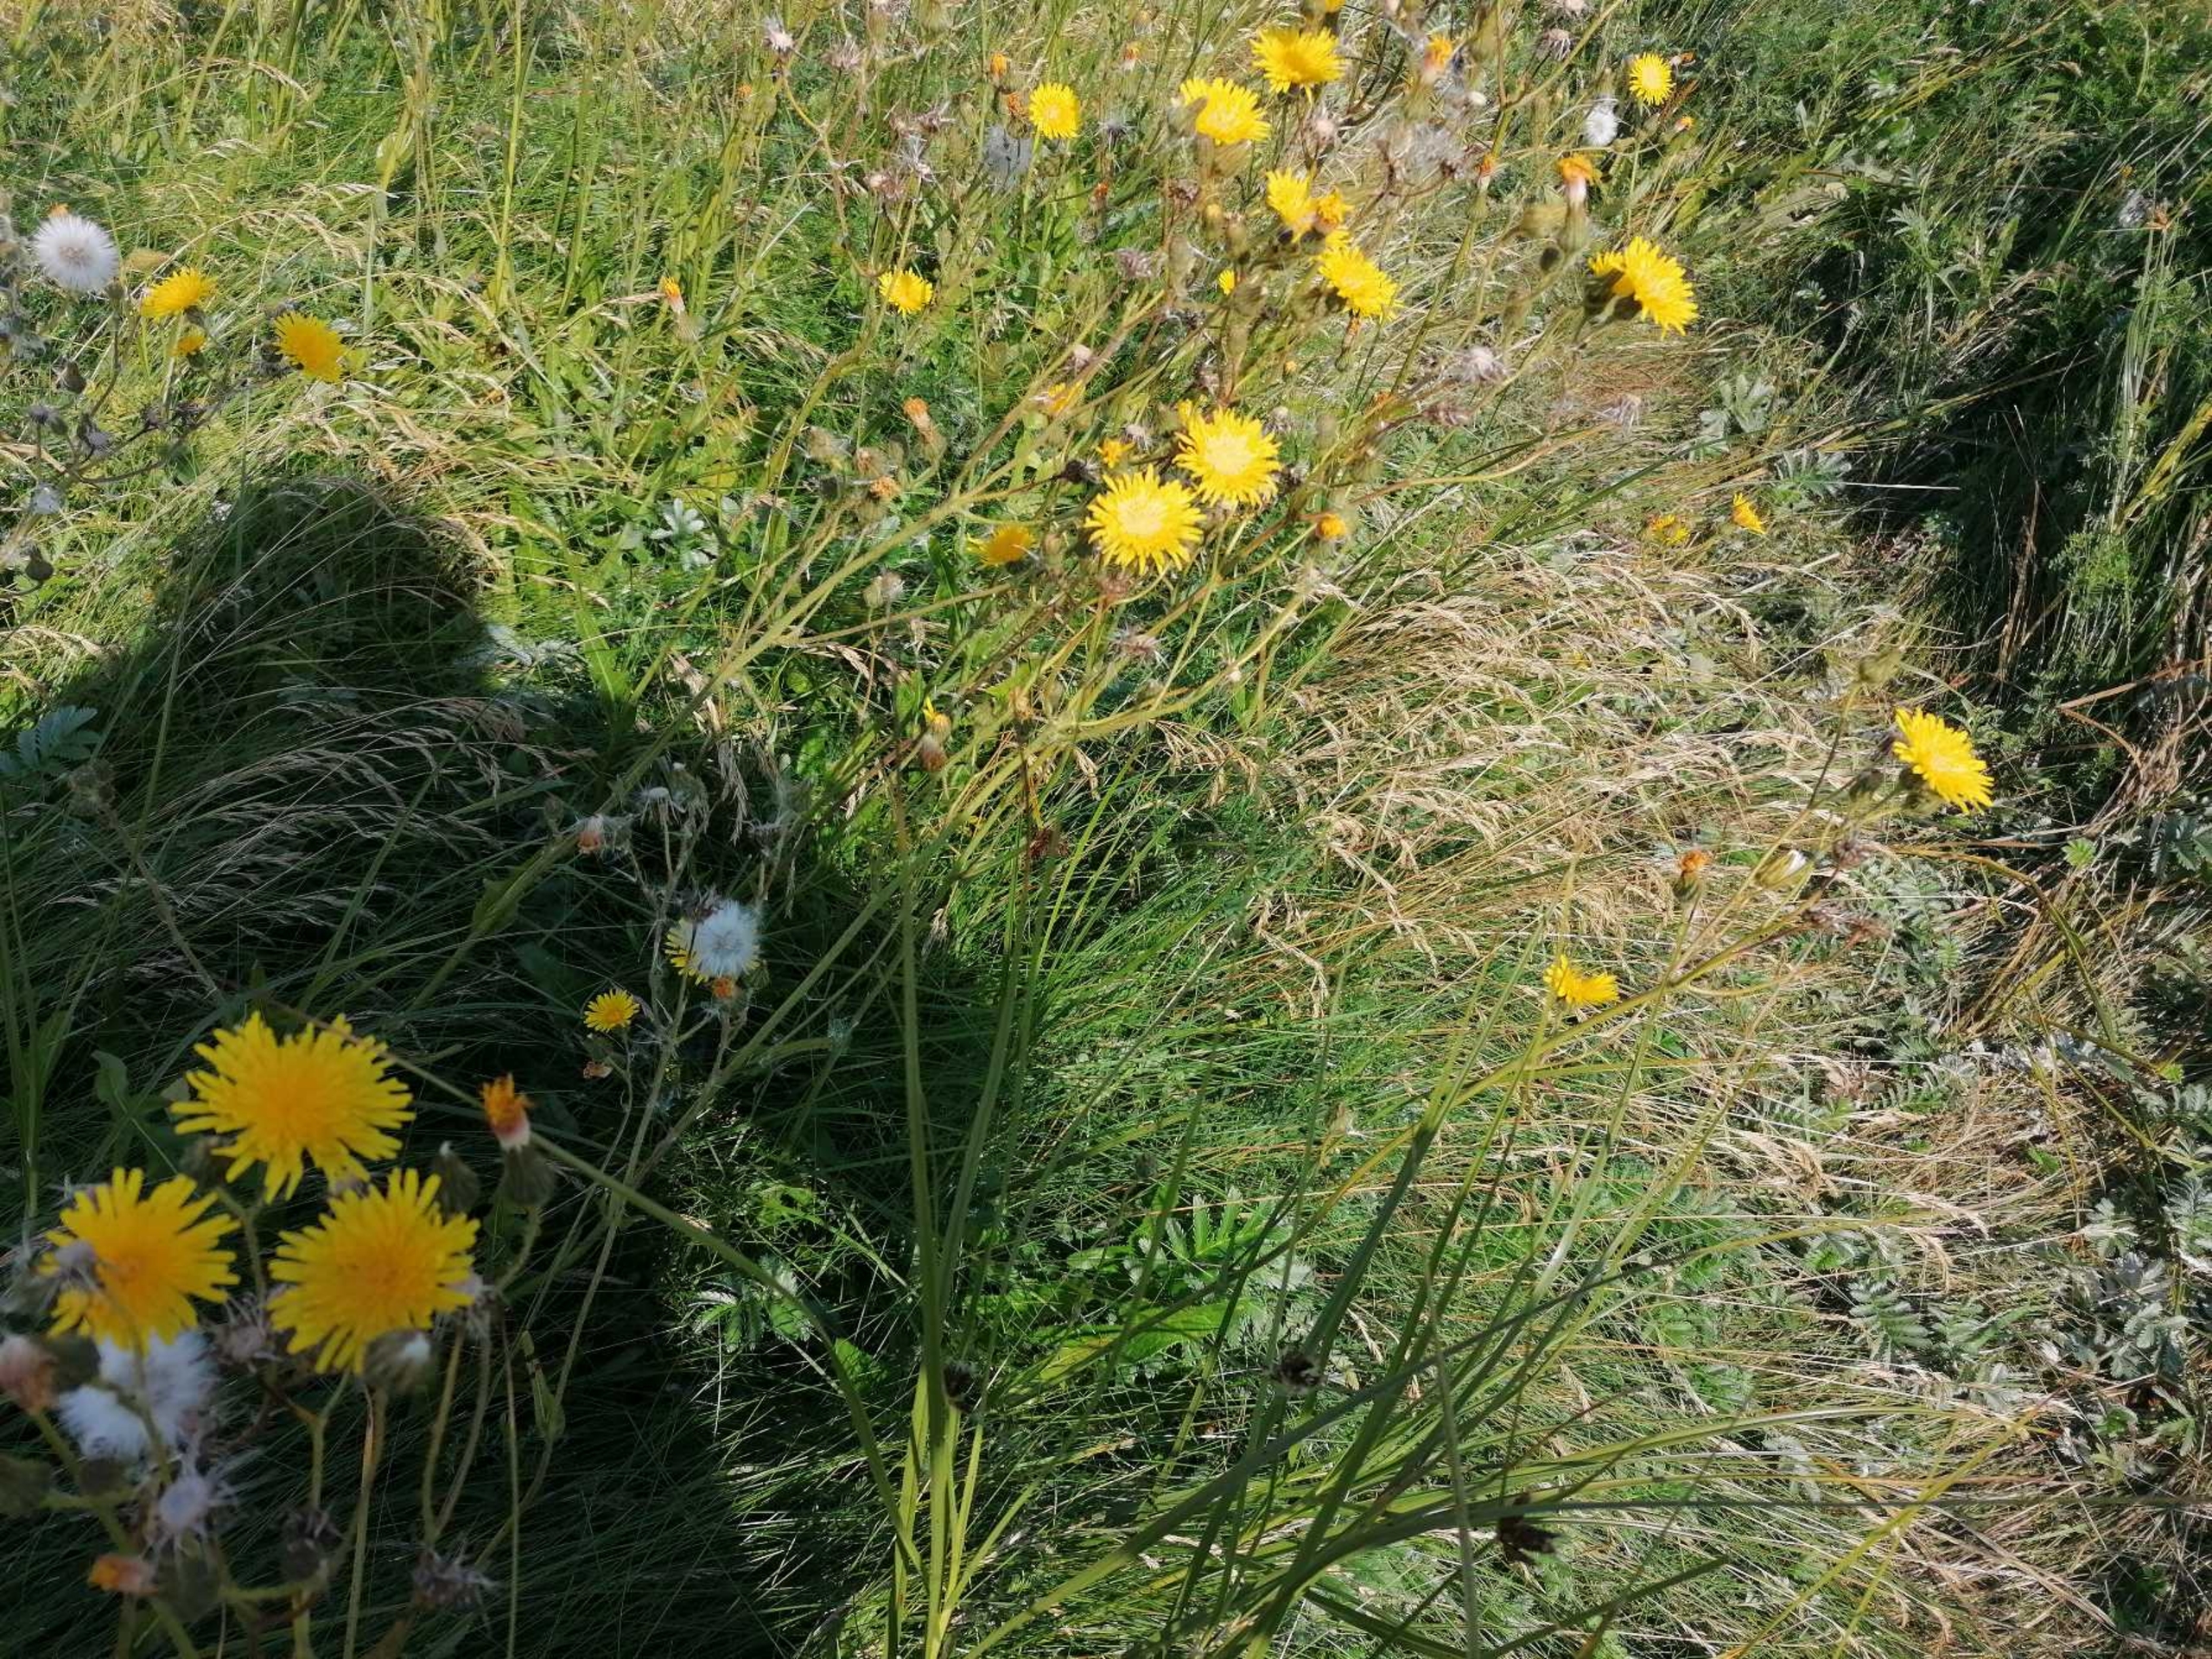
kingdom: Plantae
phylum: Tracheophyta
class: Magnoliopsida
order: Asterales
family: Asteraceae
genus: Sonchus
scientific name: Sonchus arvensis
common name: Ager-svinemælk
